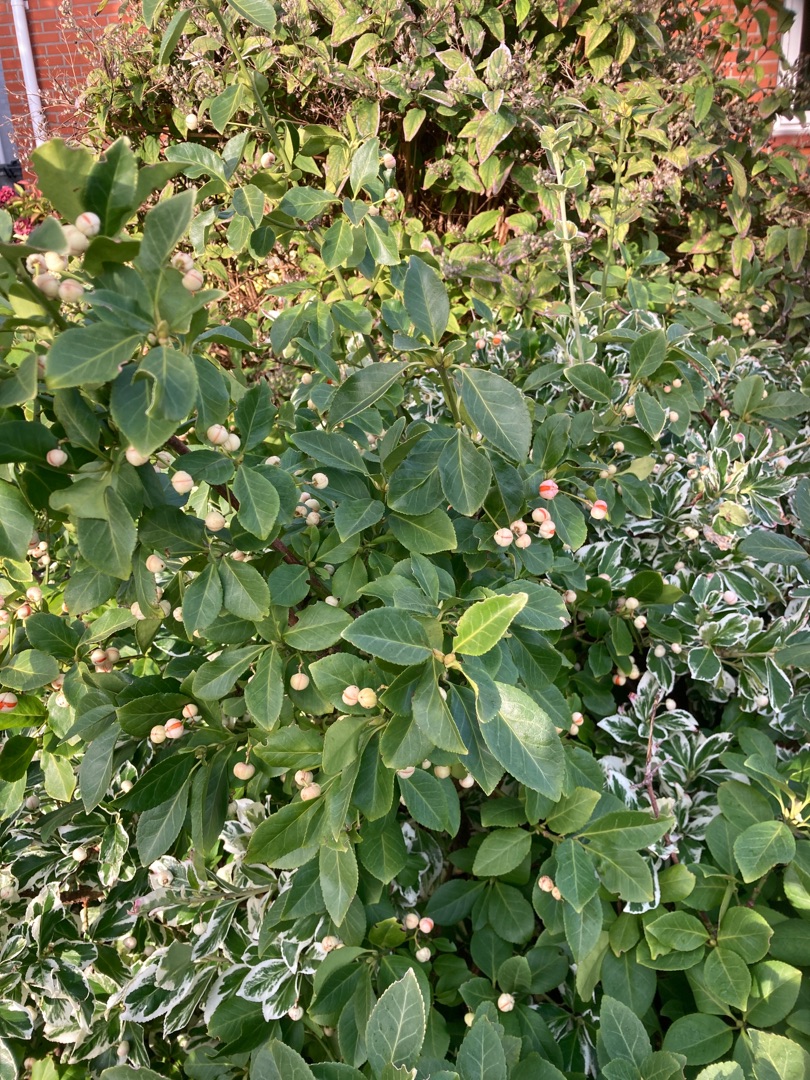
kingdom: Plantae
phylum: Tracheophyta
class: Magnoliopsida
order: Celastrales
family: Celastraceae
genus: Euonymus
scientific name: Euonymus japonicus
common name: Japansk benved
